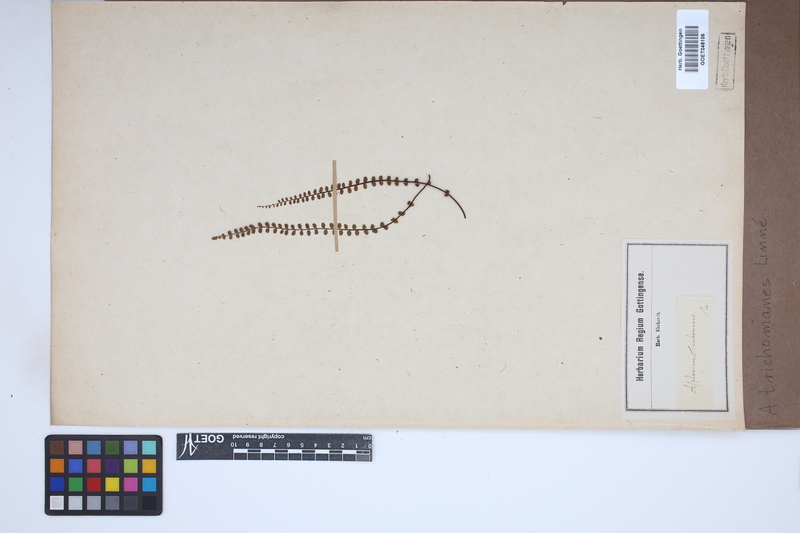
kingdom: Plantae
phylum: Tracheophyta
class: Polypodiopsida
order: Polypodiales
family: Aspleniaceae
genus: Asplenium
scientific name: Asplenium trichomanes
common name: Maidenhair spleenwort
